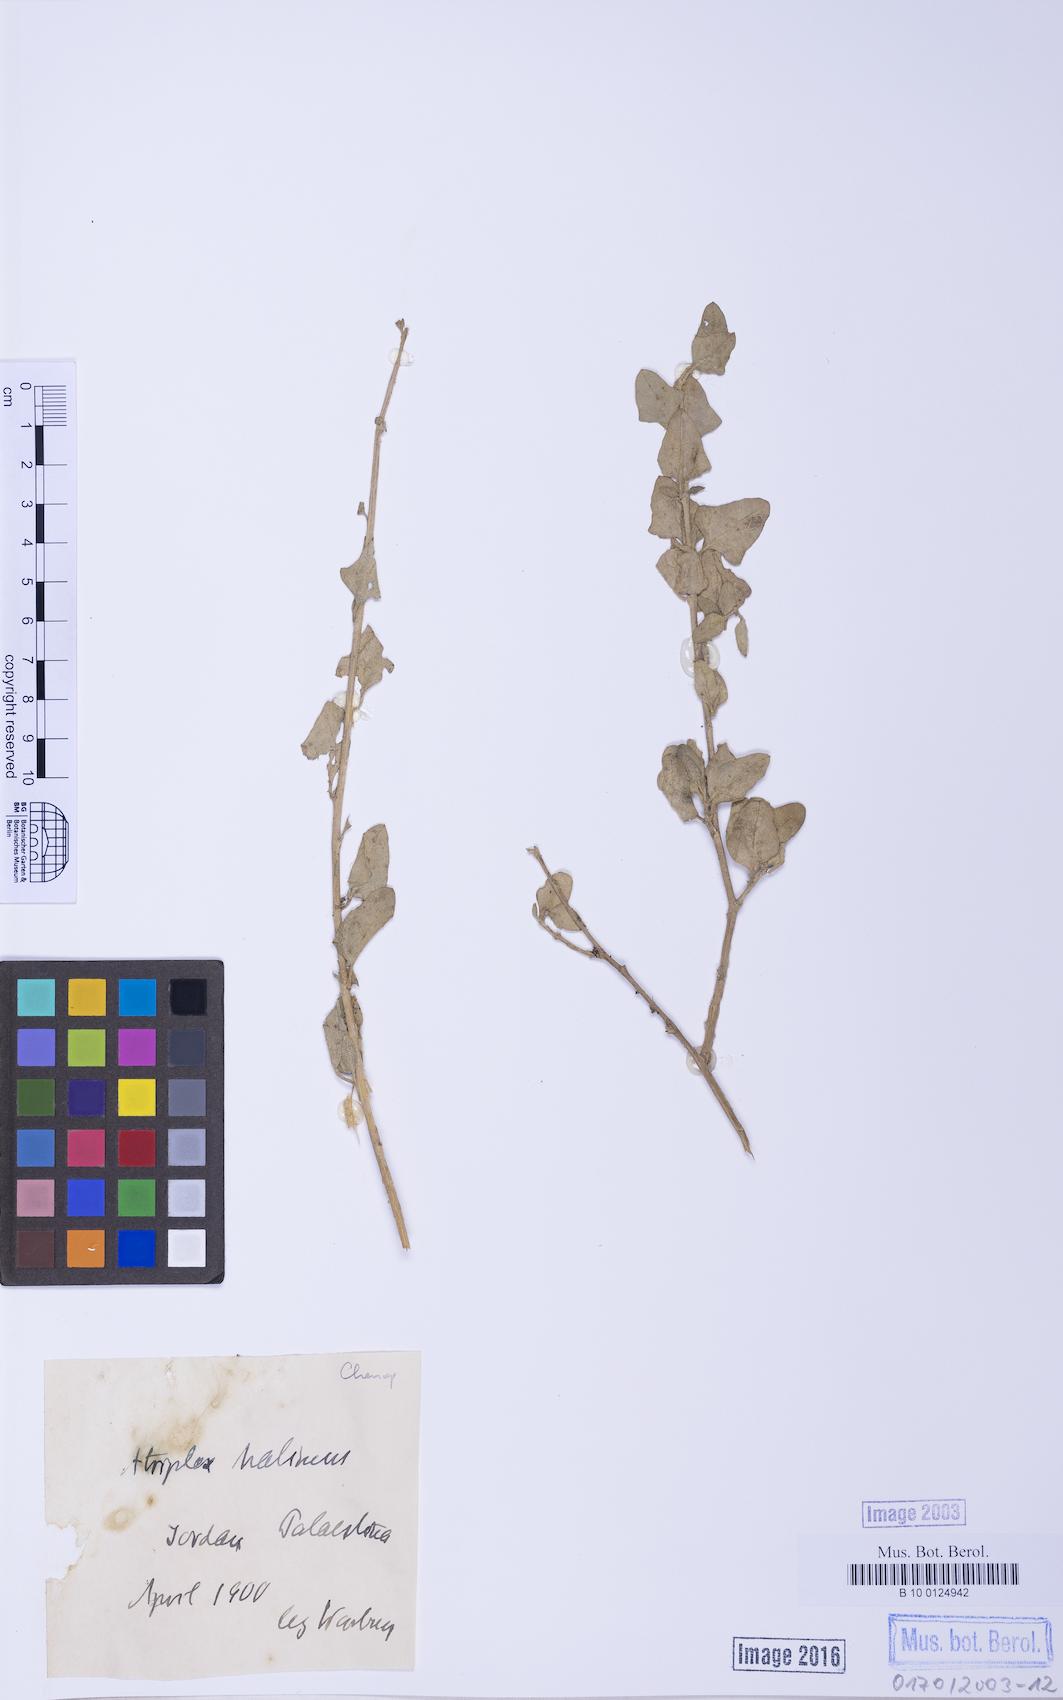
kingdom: Plantae
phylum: Tracheophyta
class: Magnoliopsida
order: Caryophyllales
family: Amaranthaceae
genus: Atriplex
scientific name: Atriplex halimus
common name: Shrubby orache
